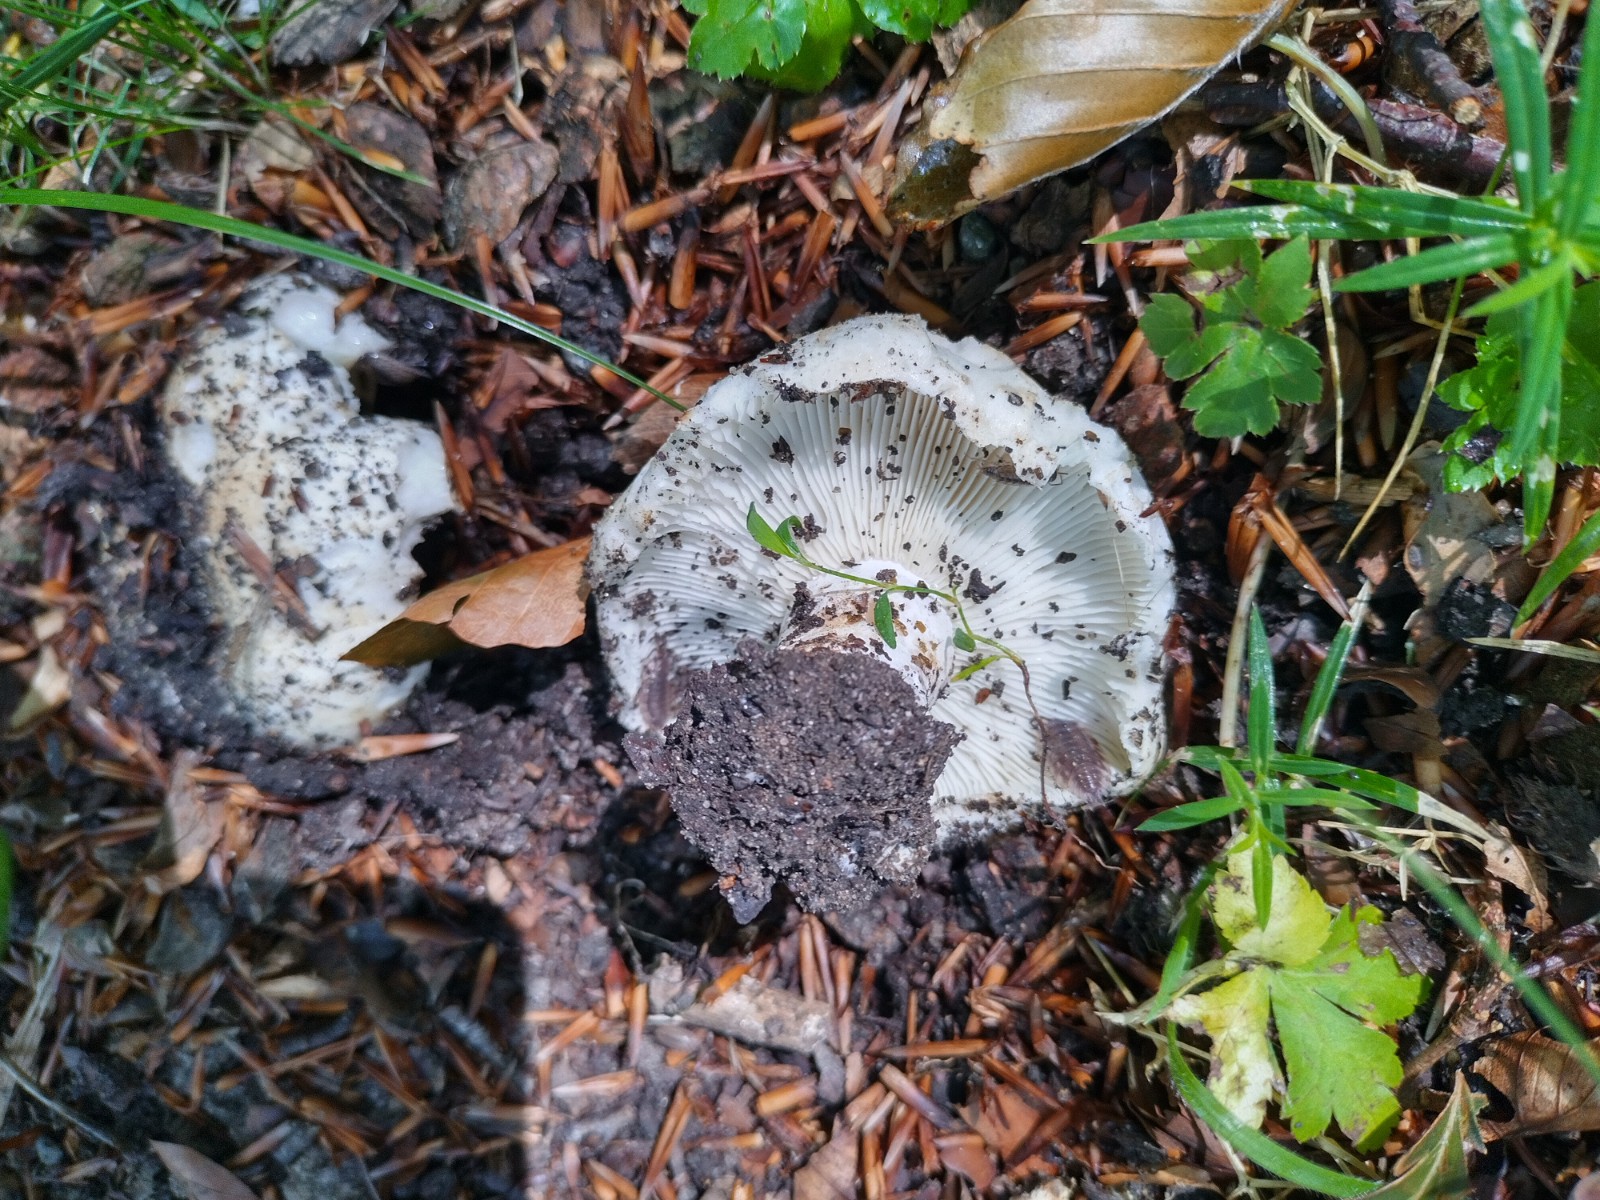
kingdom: Fungi
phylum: Basidiomycota
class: Agaricomycetes
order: Russulales
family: Russulaceae
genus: Russula
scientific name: Russula
